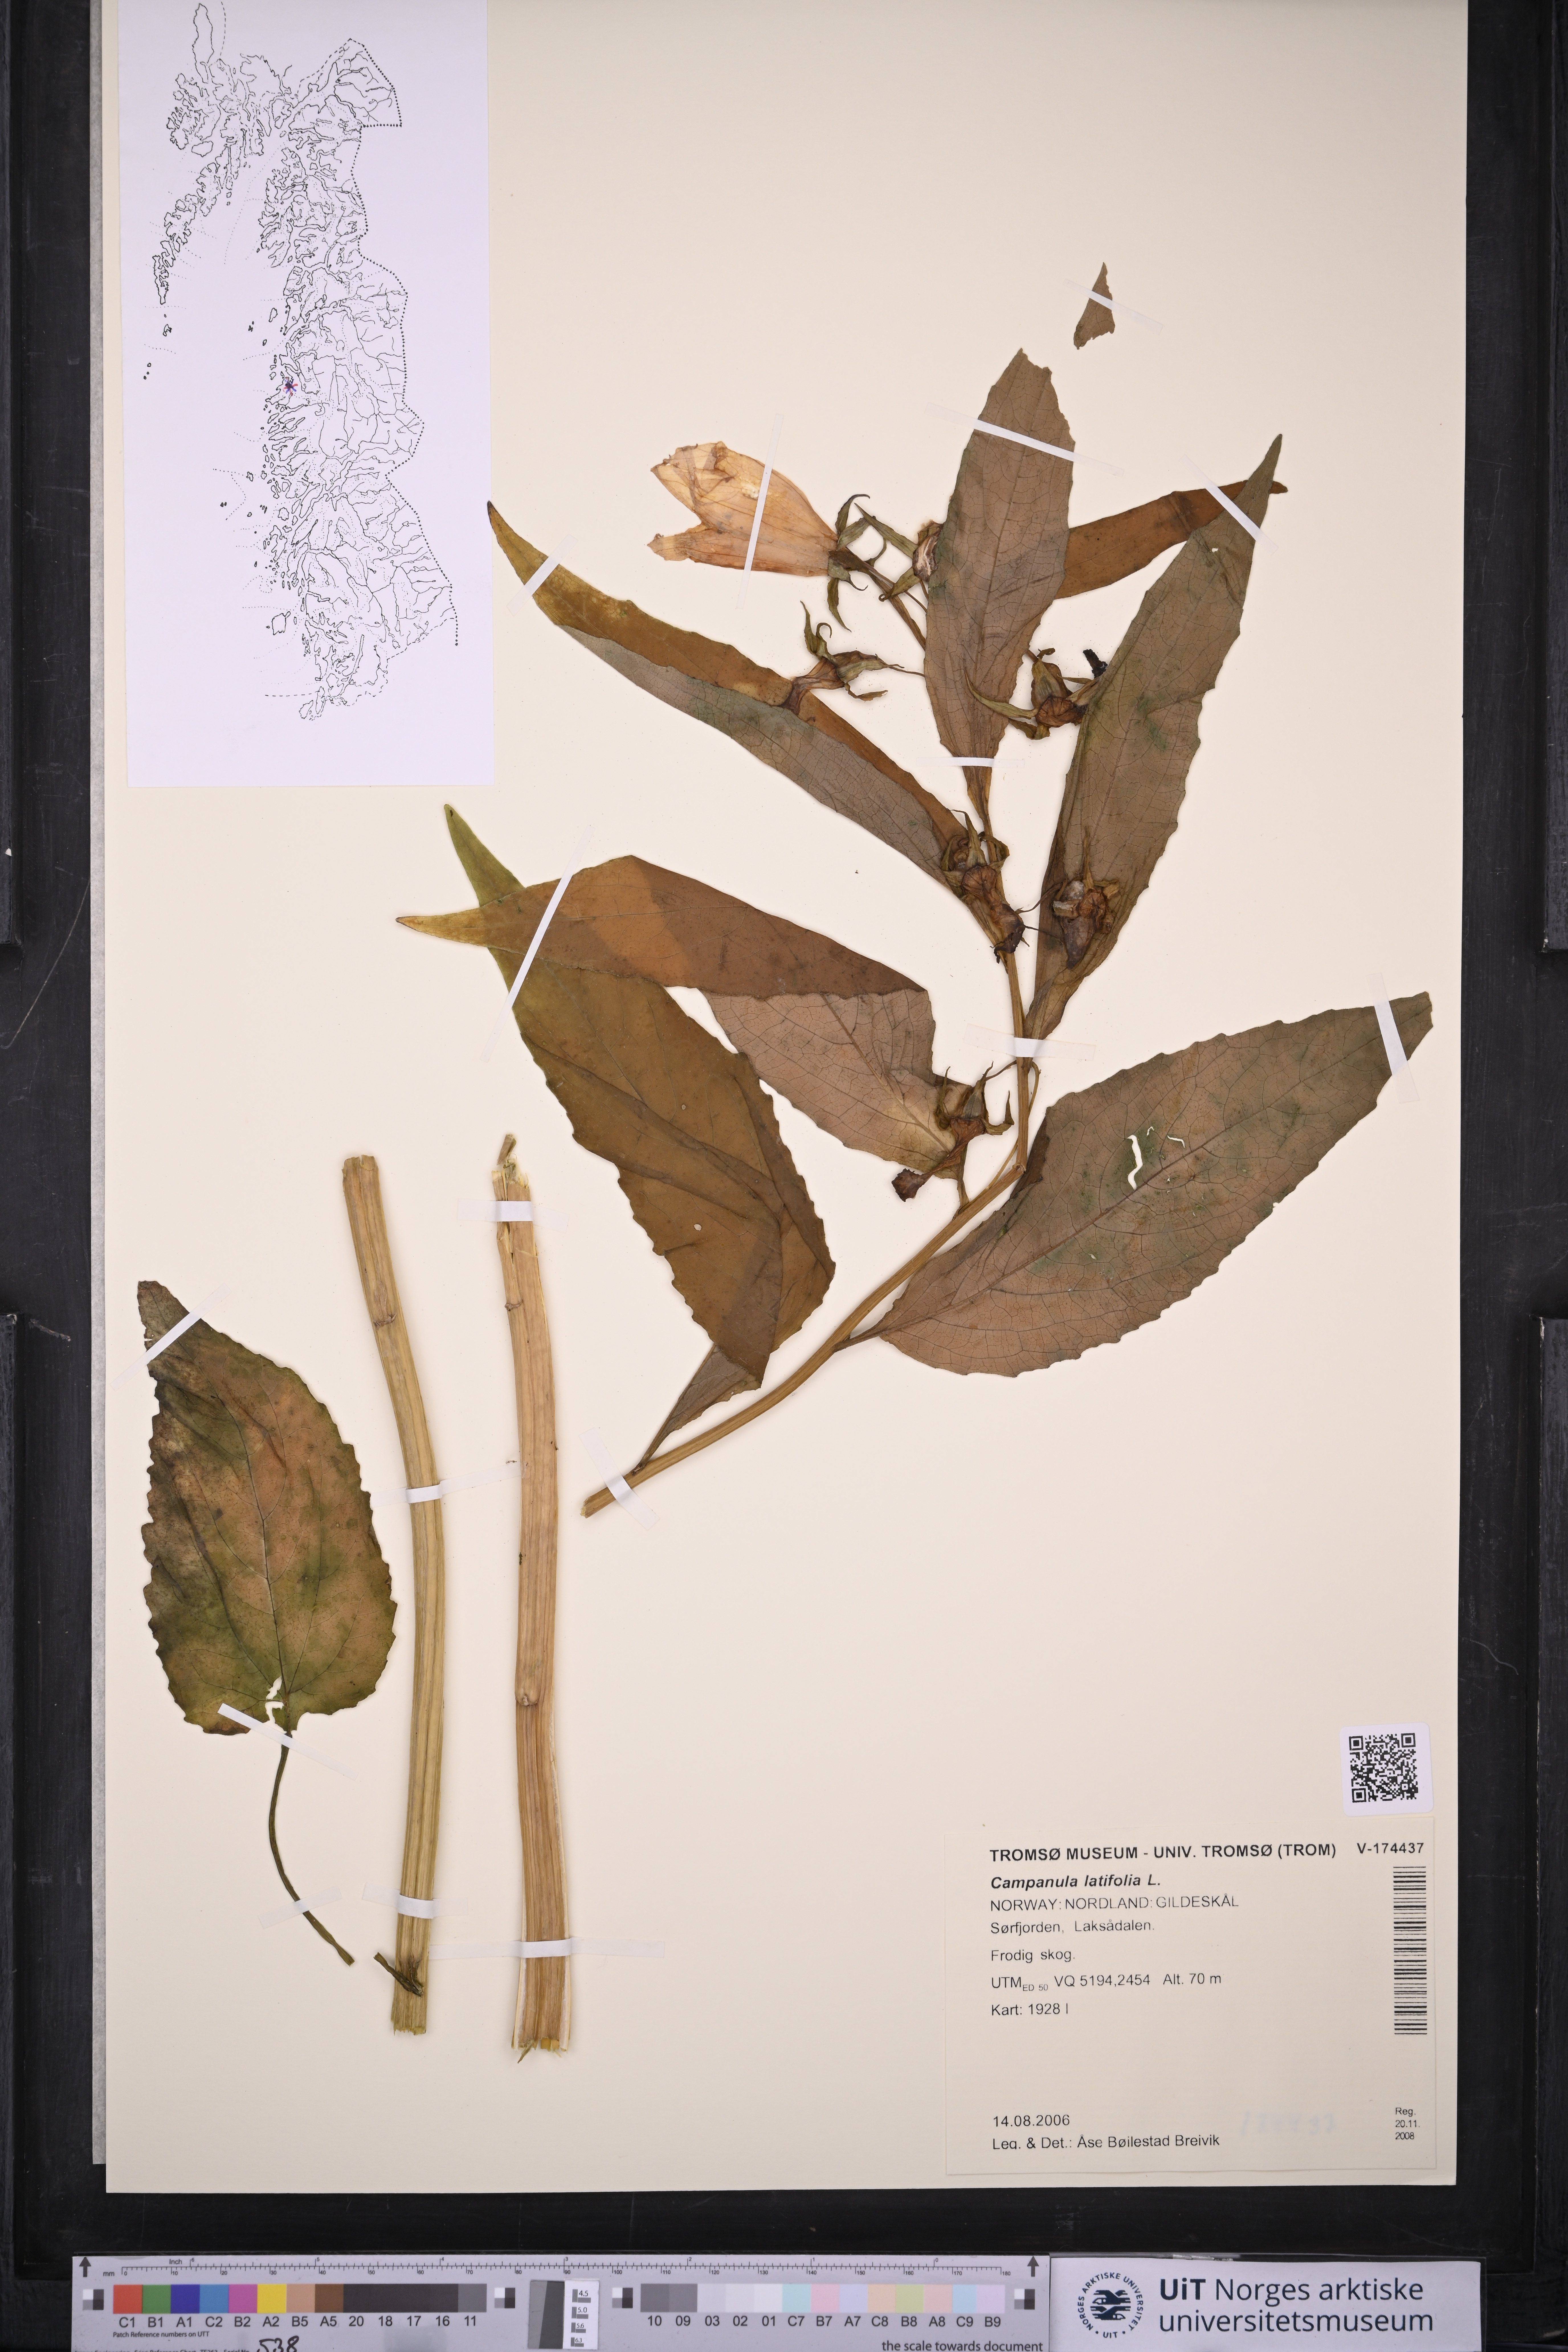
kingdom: Plantae
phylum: Tracheophyta
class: Magnoliopsida
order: Asterales
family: Campanulaceae
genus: Campanula
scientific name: Campanula latifolia
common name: Giant bellflower
